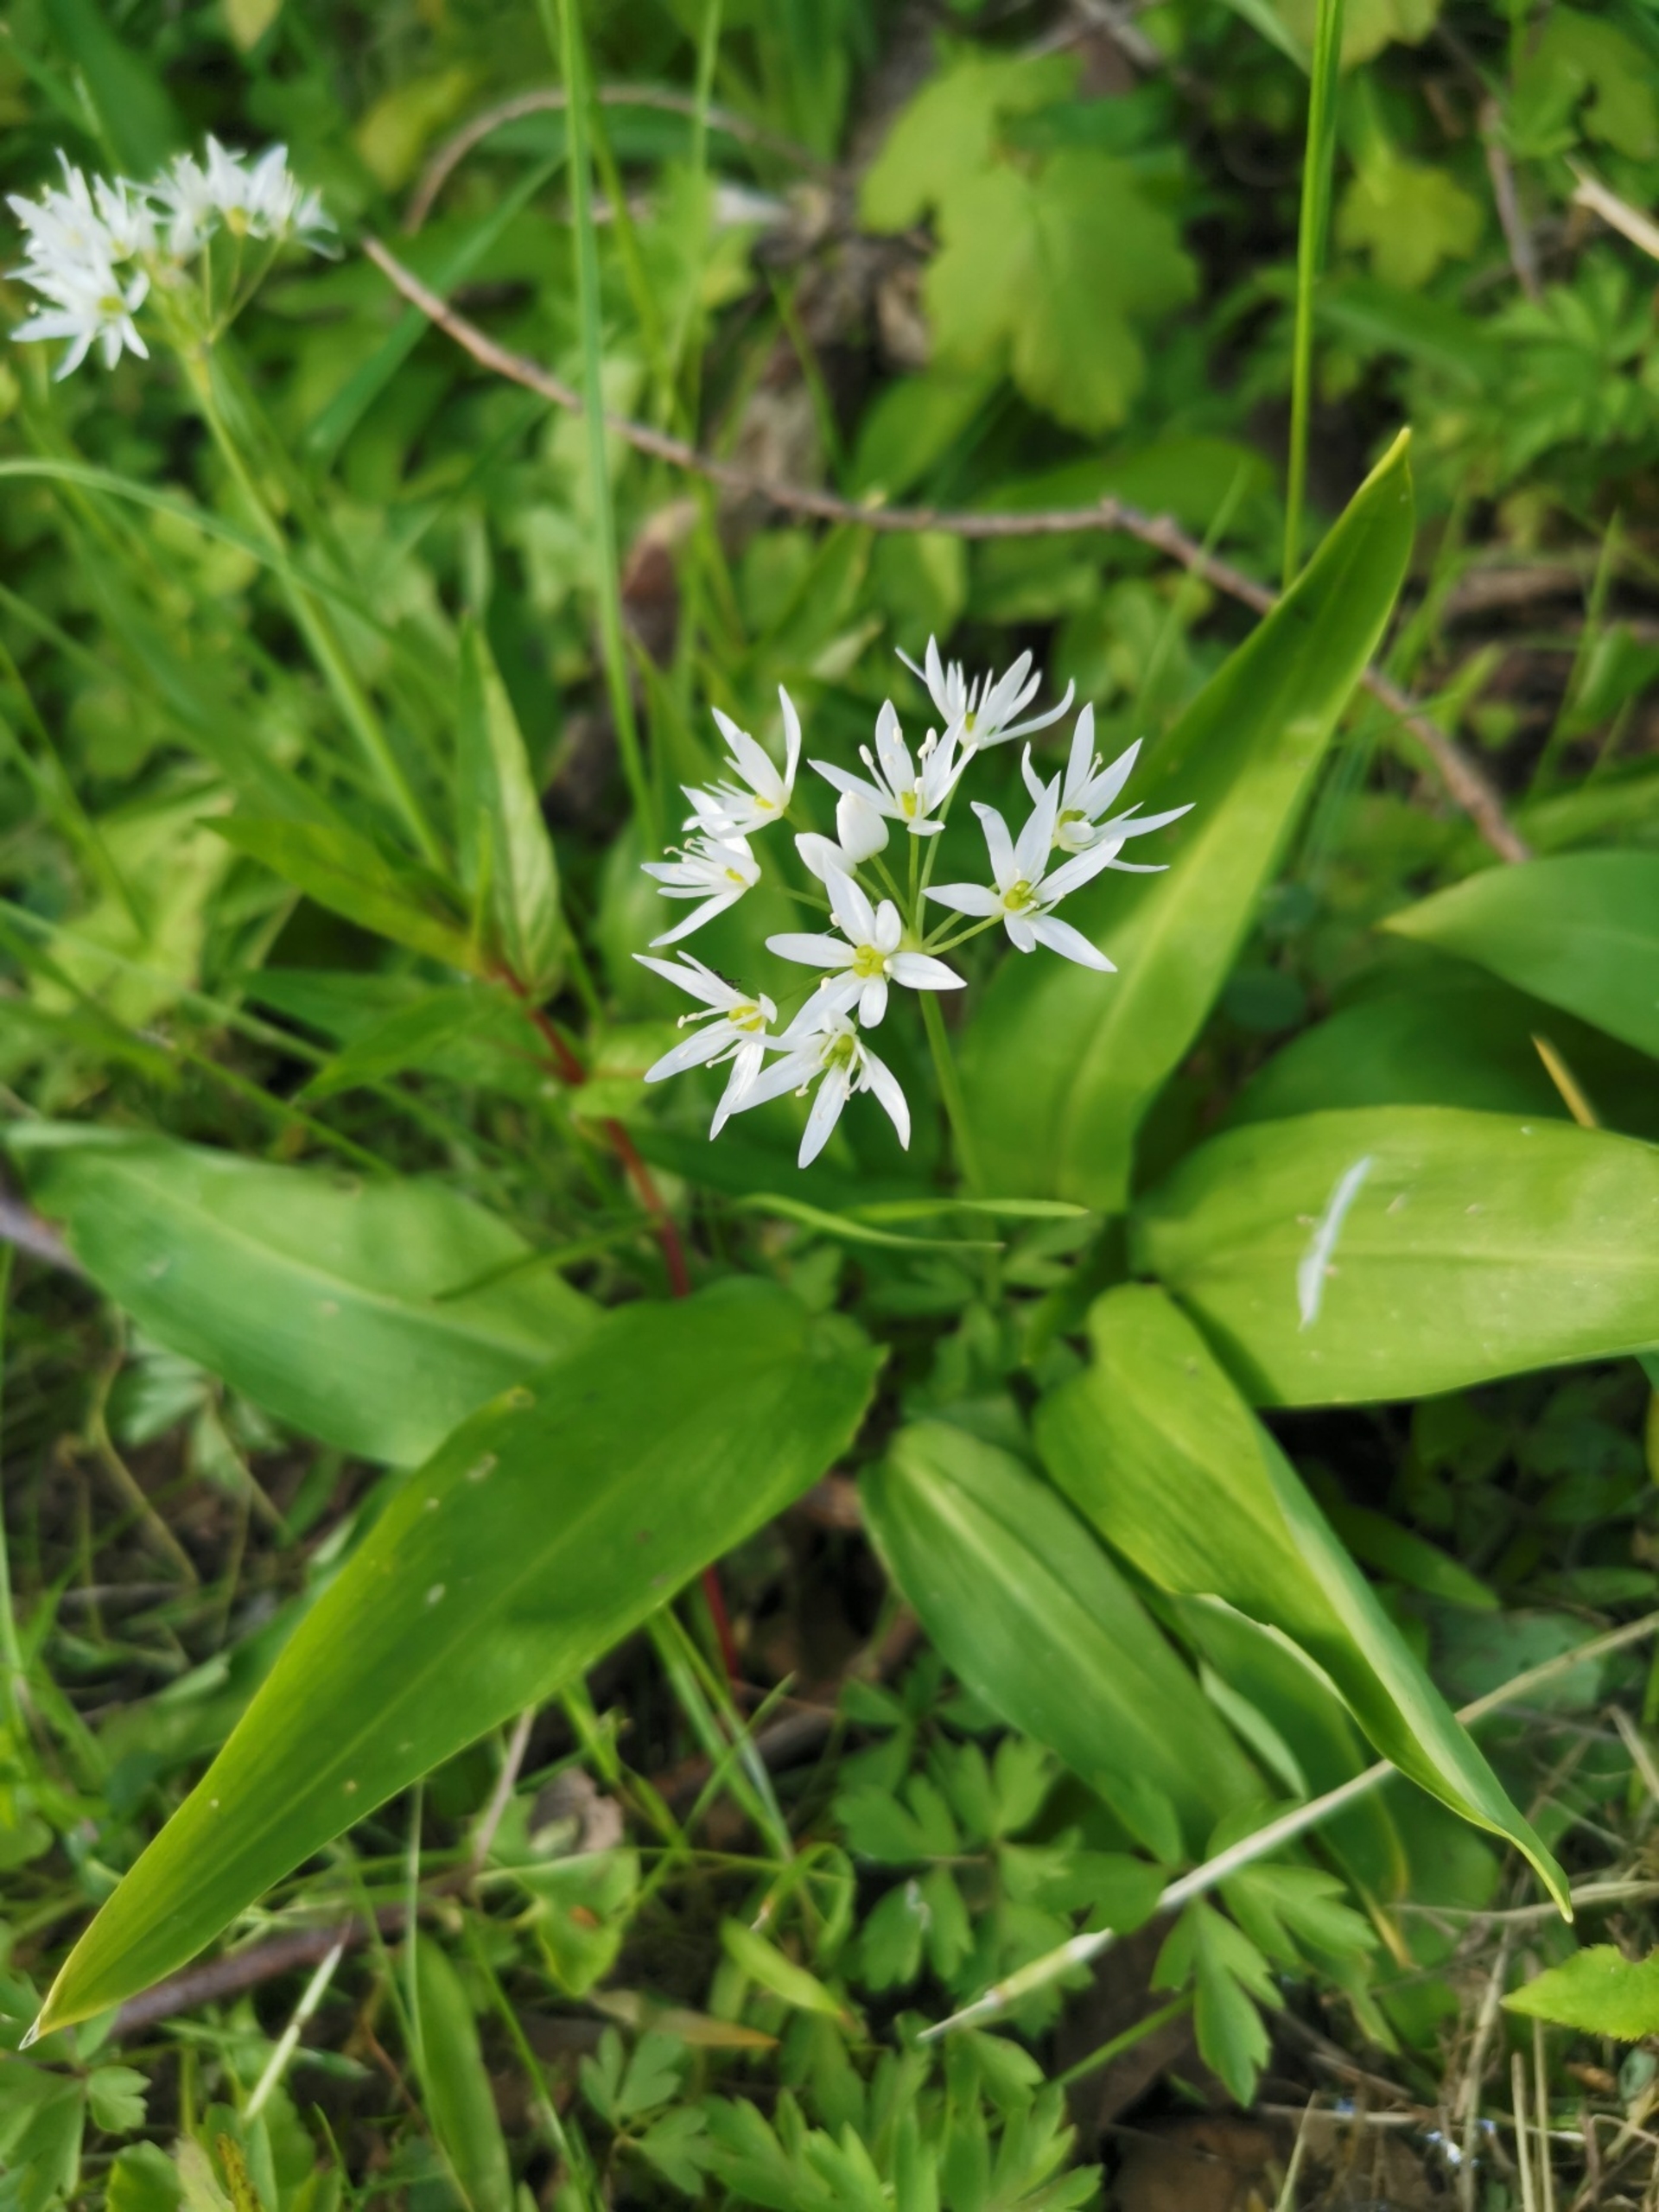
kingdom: Plantae
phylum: Tracheophyta
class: Liliopsida
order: Asparagales
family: Amaryllidaceae
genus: Allium
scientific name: Allium ursinum
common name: Rams-løg
